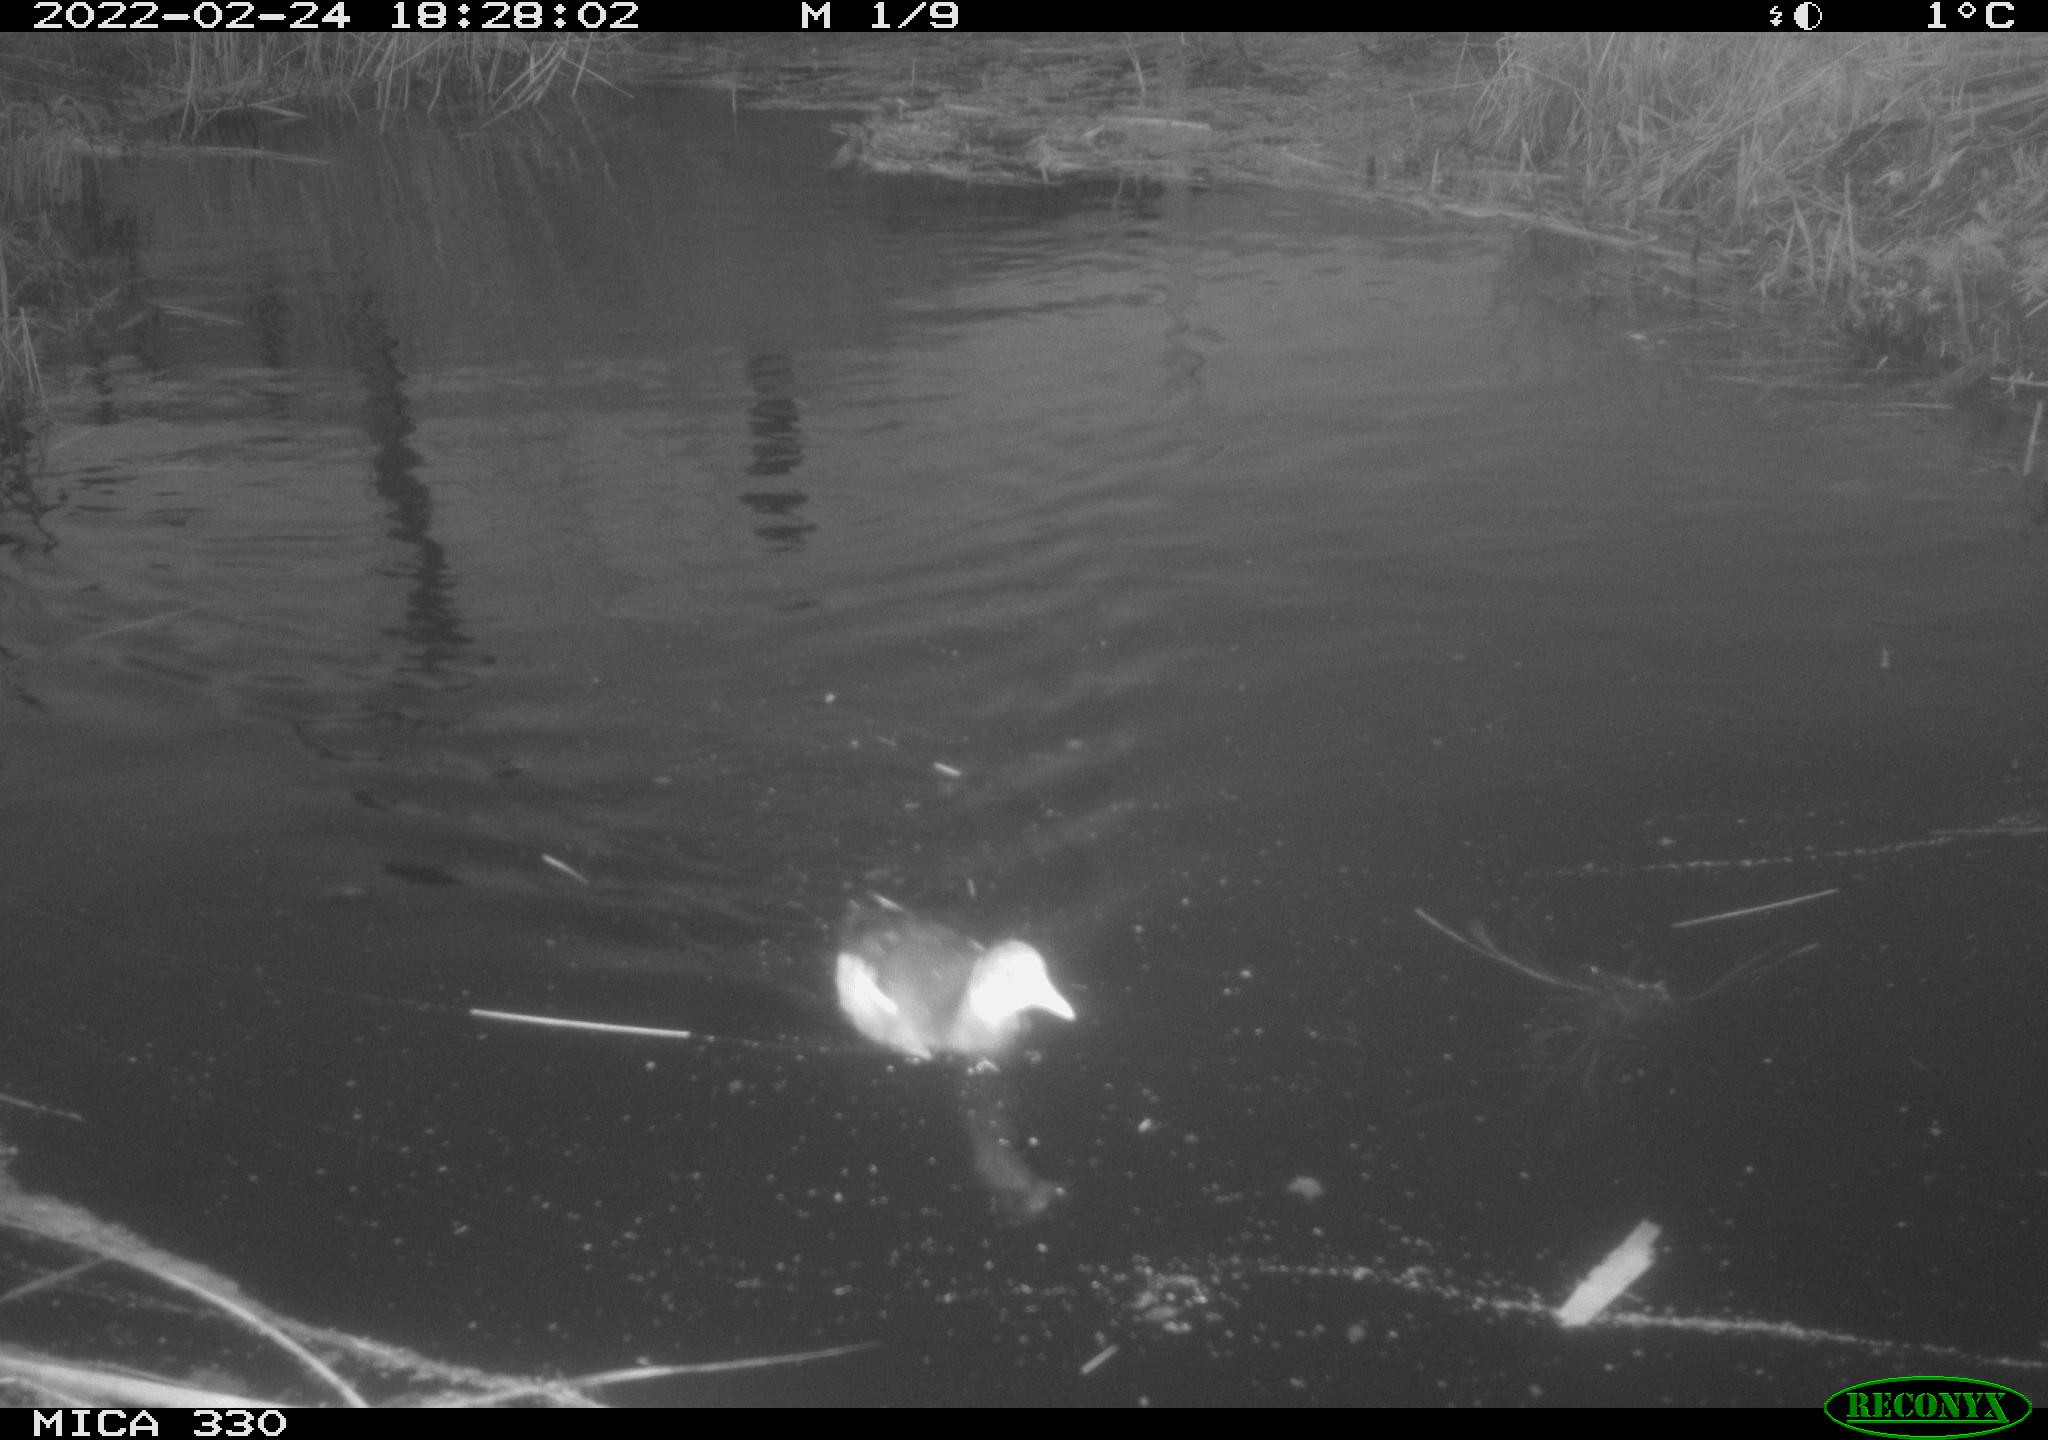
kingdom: Animalia
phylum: Chordata
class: Aves
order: Gruiformes
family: Rallidae
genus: Gallinula
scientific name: Gallinula chloropus
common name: Common moorhen
